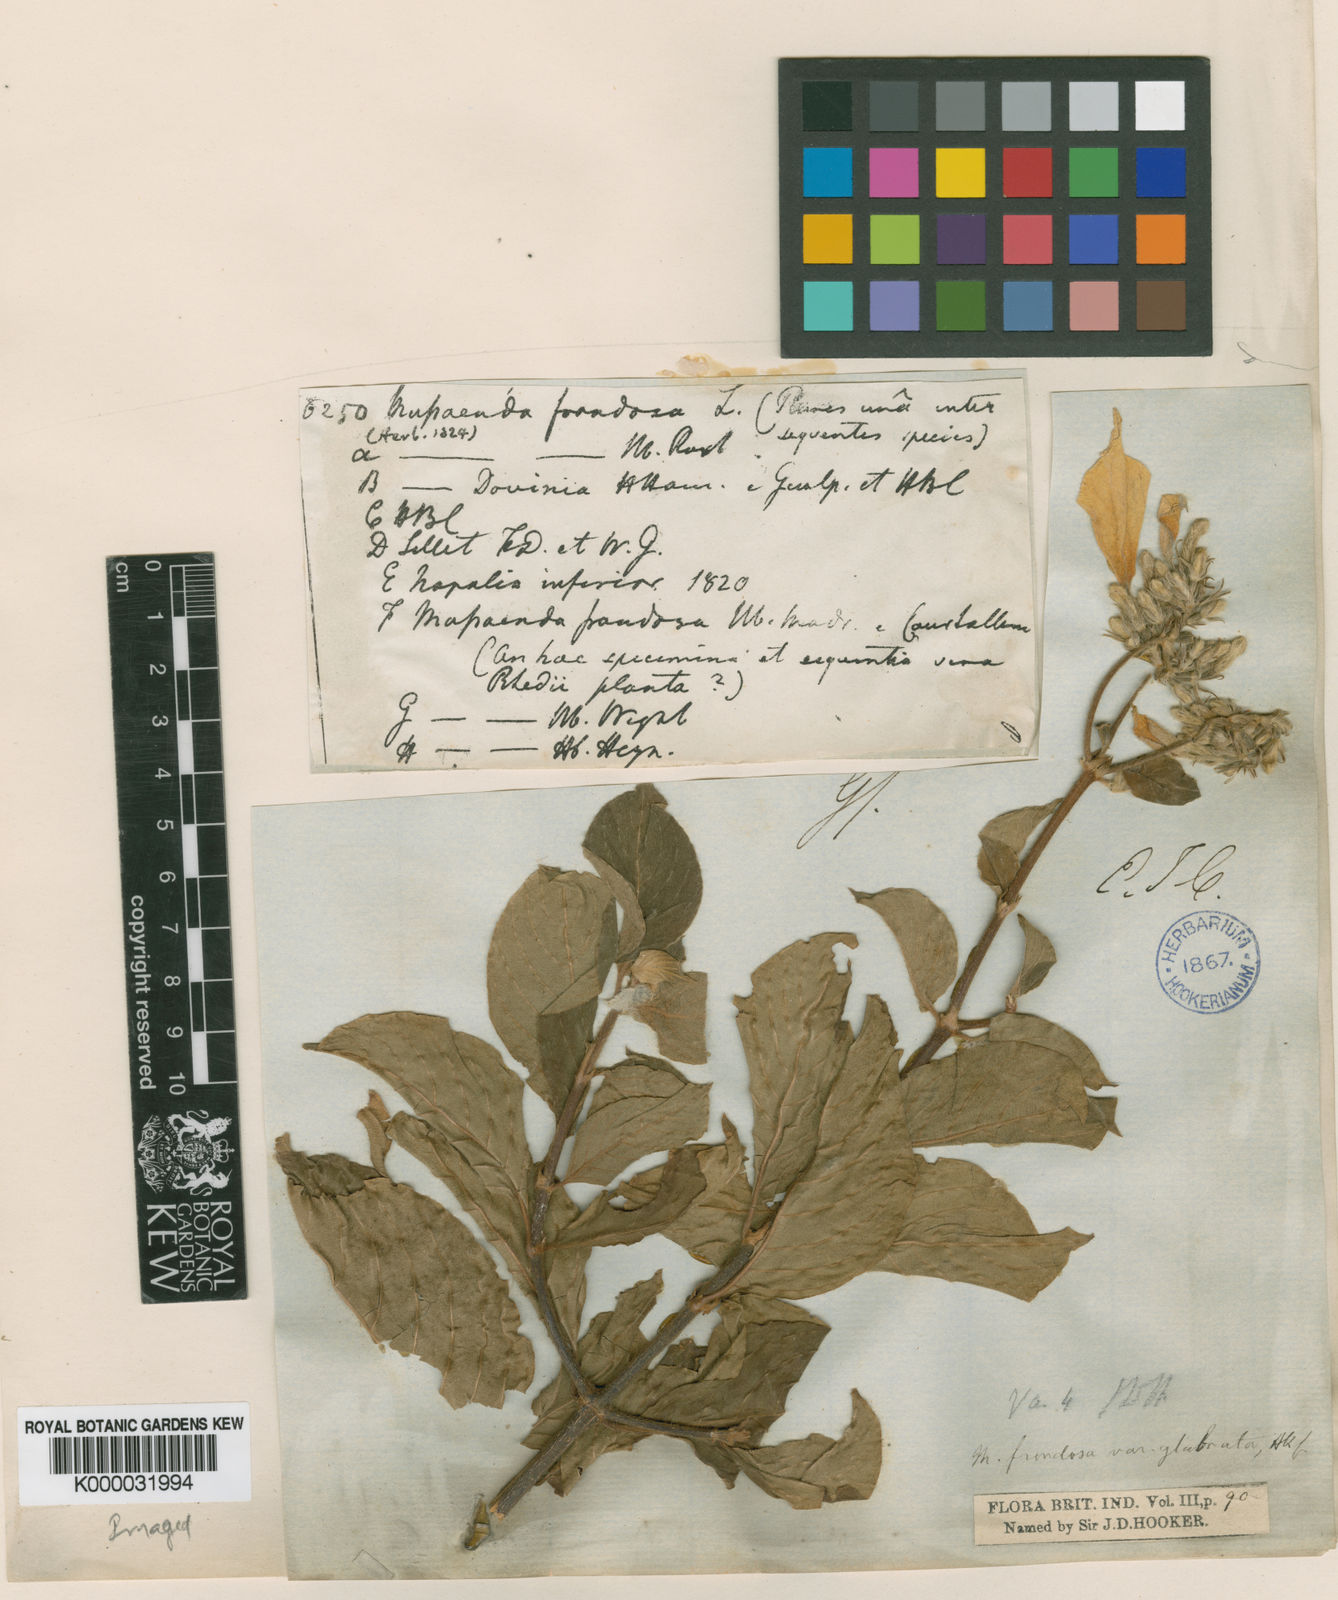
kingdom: Plantae
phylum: Tracheophyta
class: Magnoliopsida
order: Gentianales
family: Rubiaceae
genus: Mussaenda
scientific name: Mussaenda laxa
